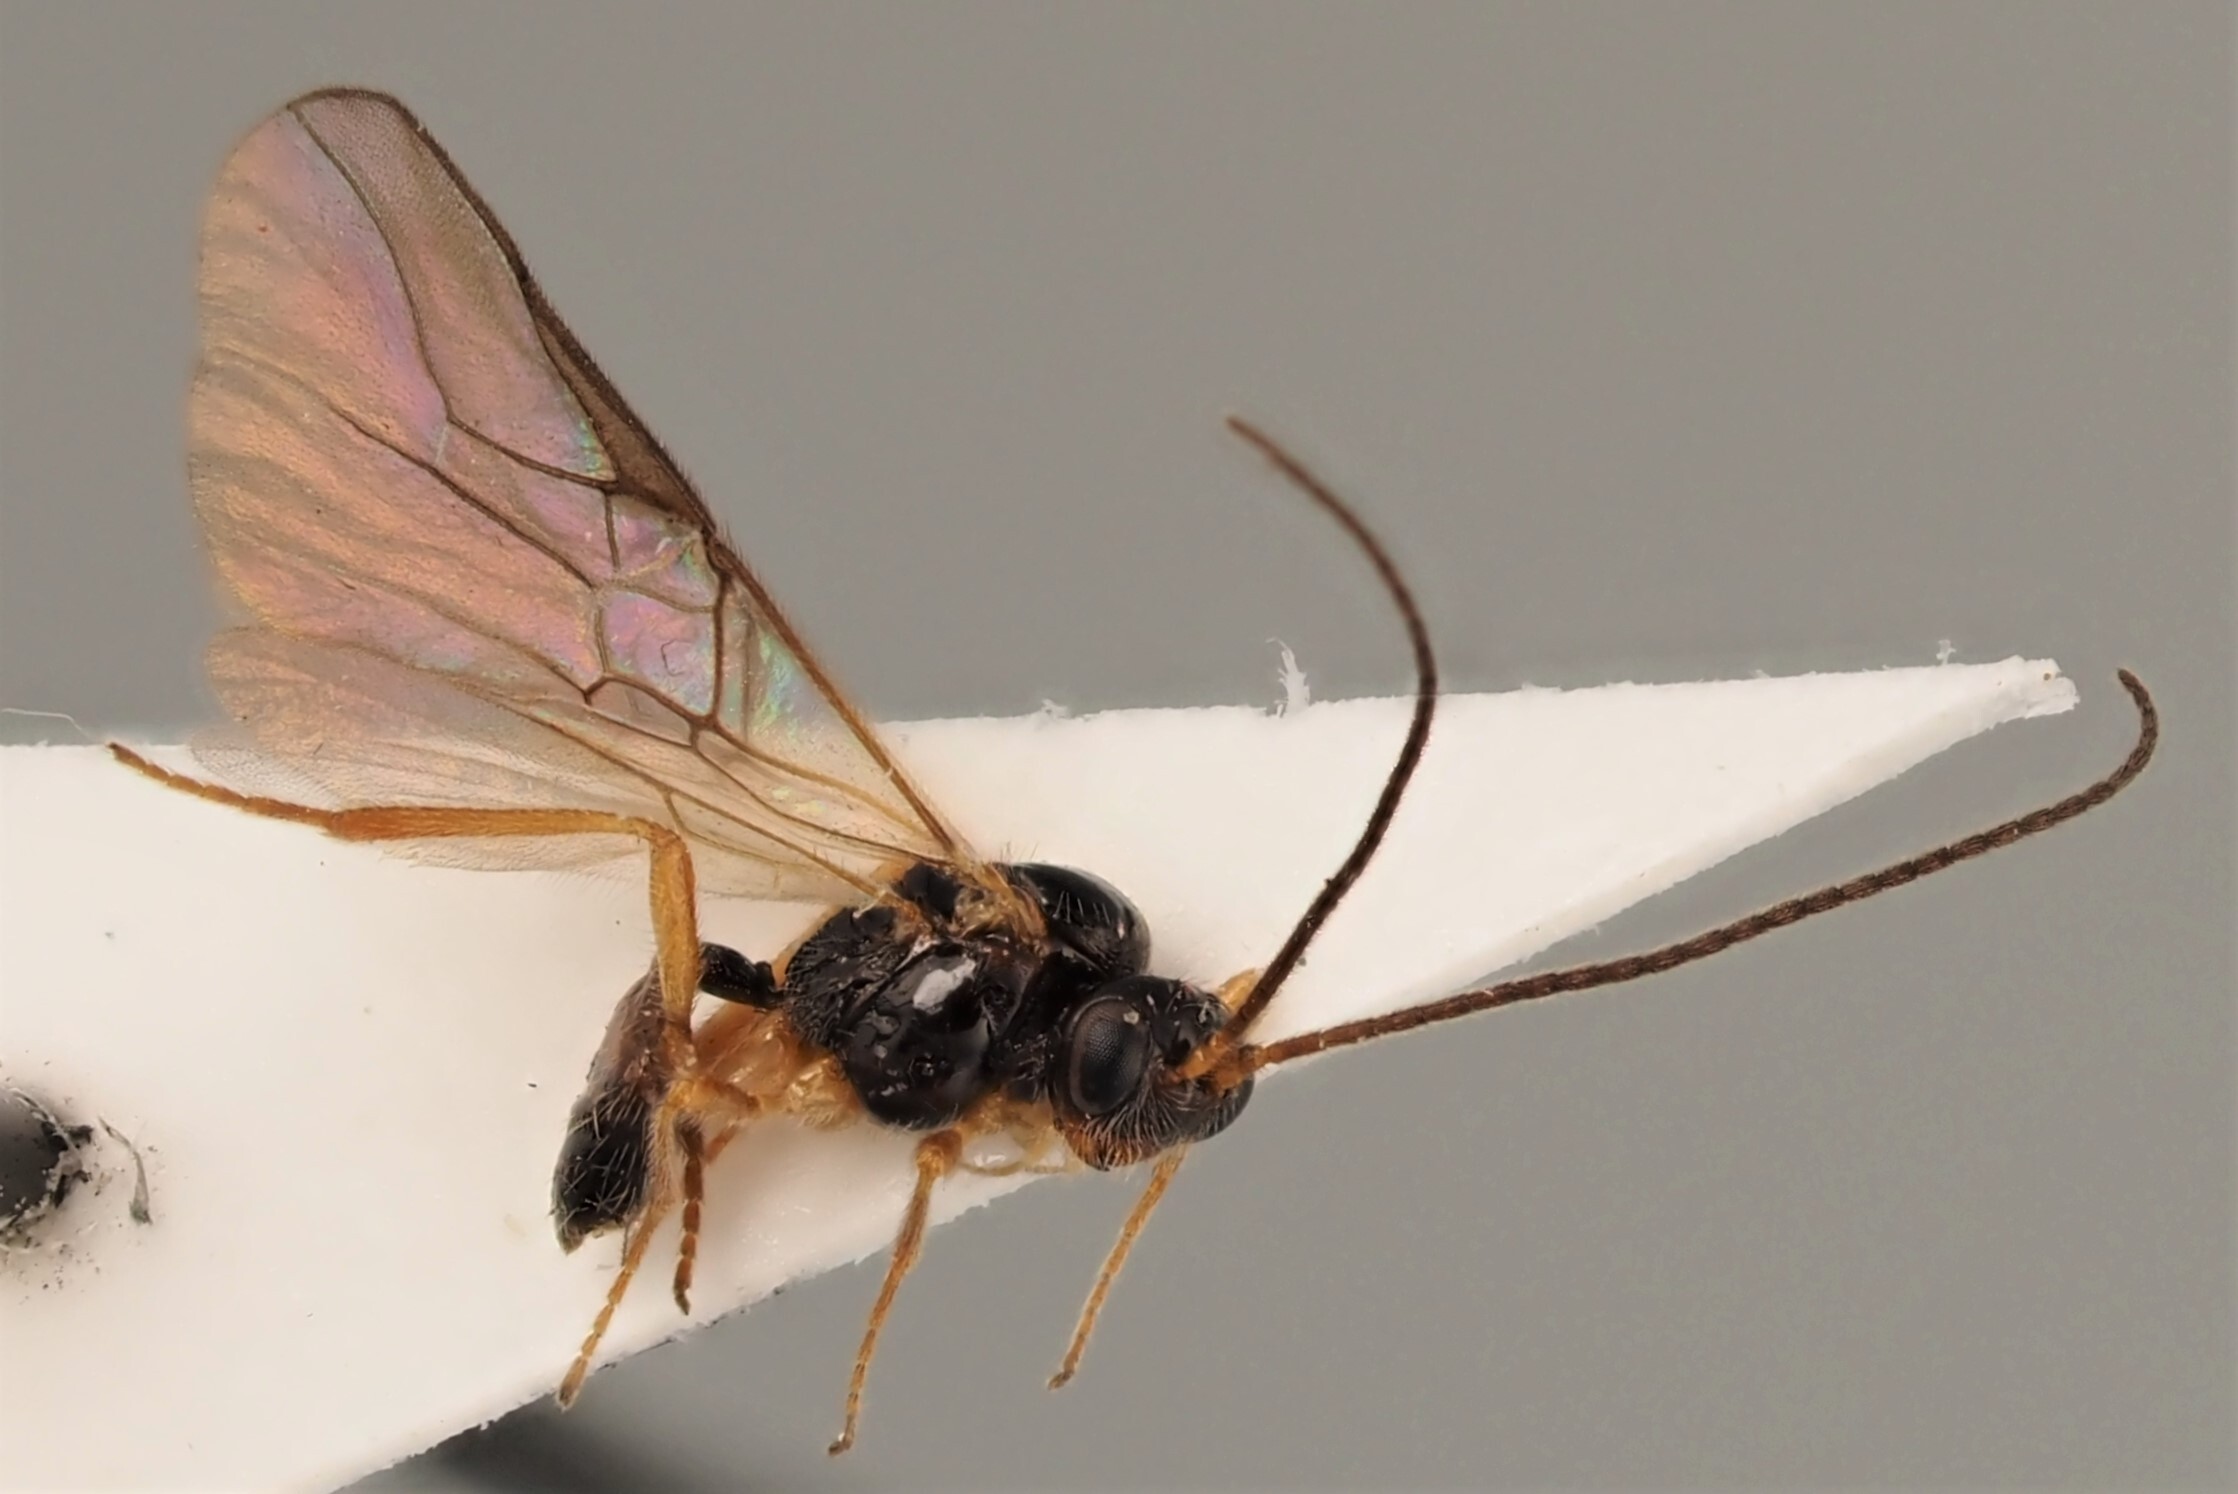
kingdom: Animalia
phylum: Arthropoda
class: Insecta
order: Hymenoptera
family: Braconidae
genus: Opius
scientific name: Opius similis
